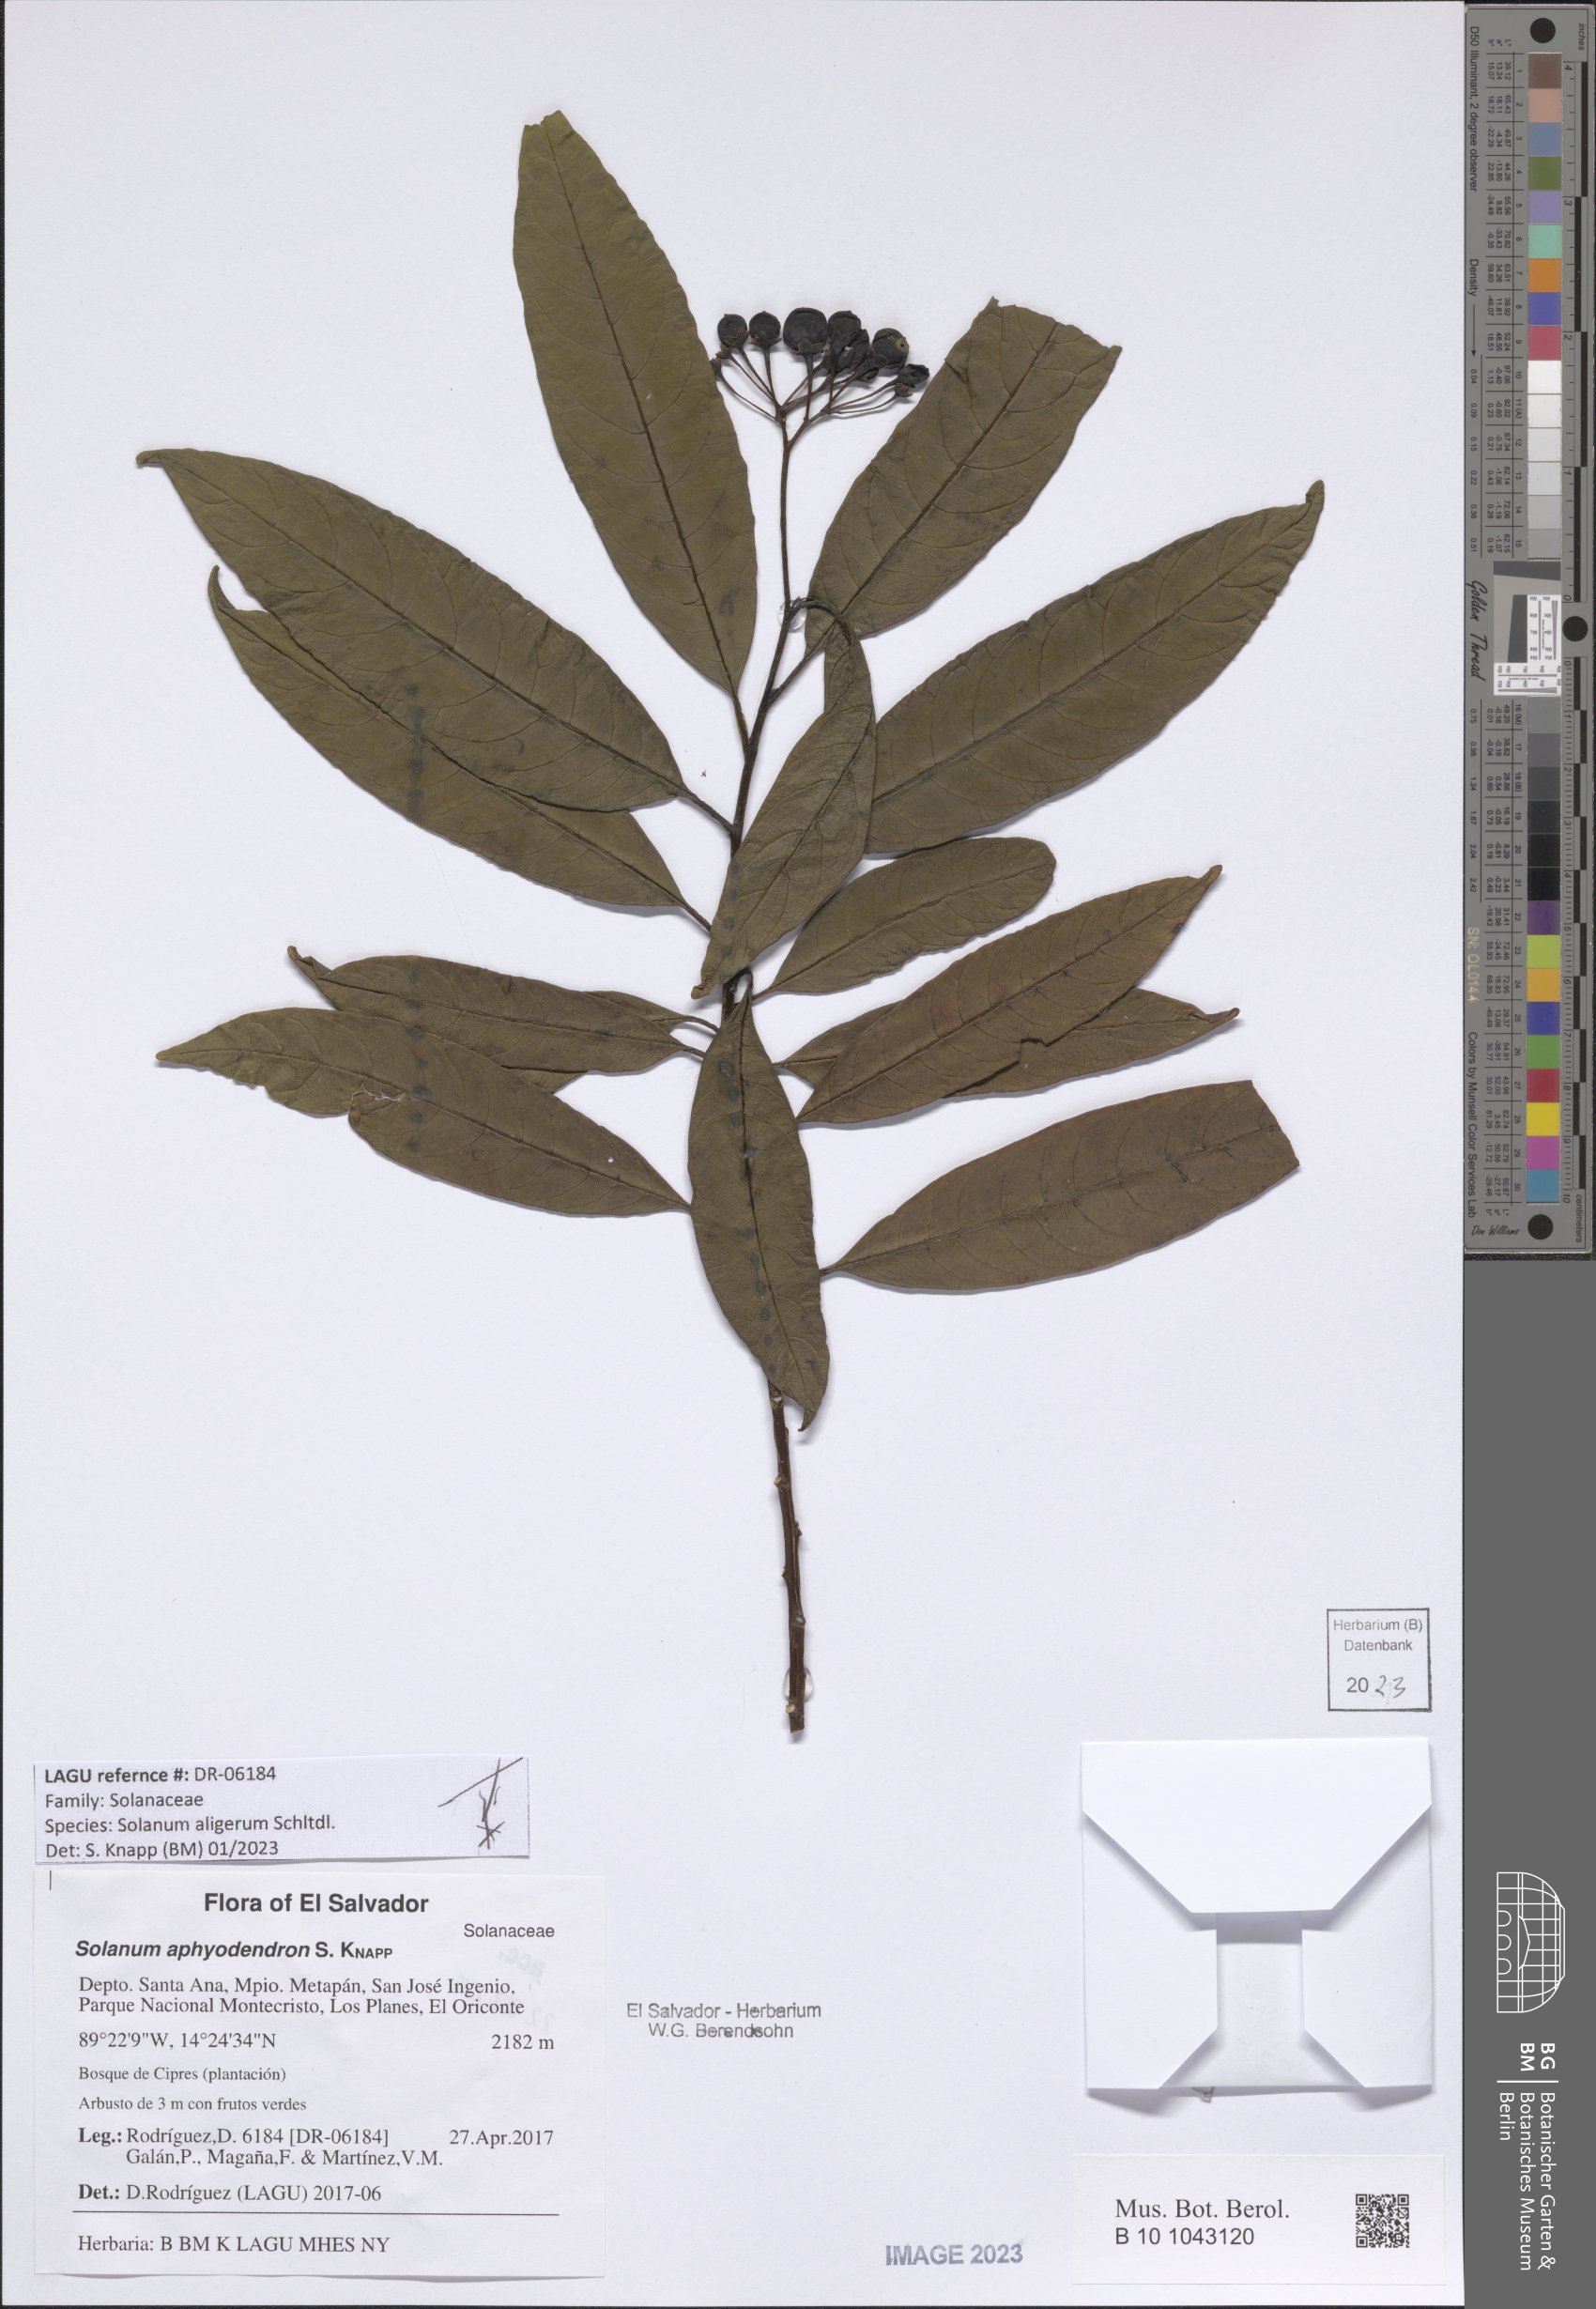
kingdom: Plantae
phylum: Tracheophyta
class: Magnoliopsida
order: Solanales
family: Solanaceae
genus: Solanum
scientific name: Solanum aligerum
